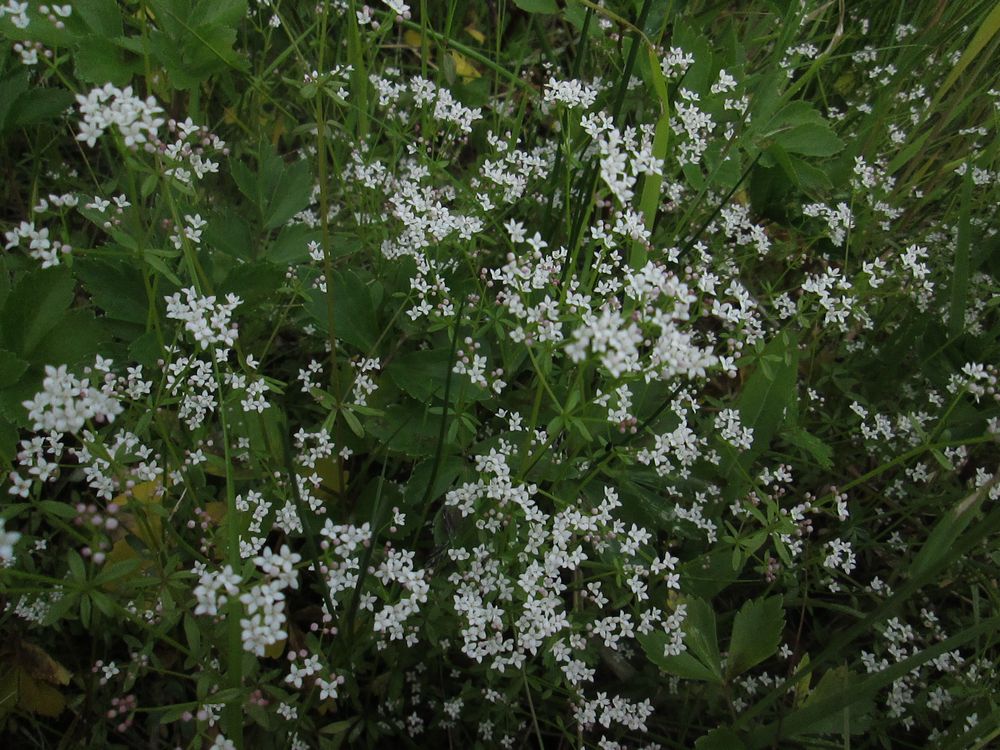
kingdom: Plantae
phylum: Tracheophyta
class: Magnoliopsida
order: Gentianales
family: Rubiaceae
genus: Galium
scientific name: Galium palustre
